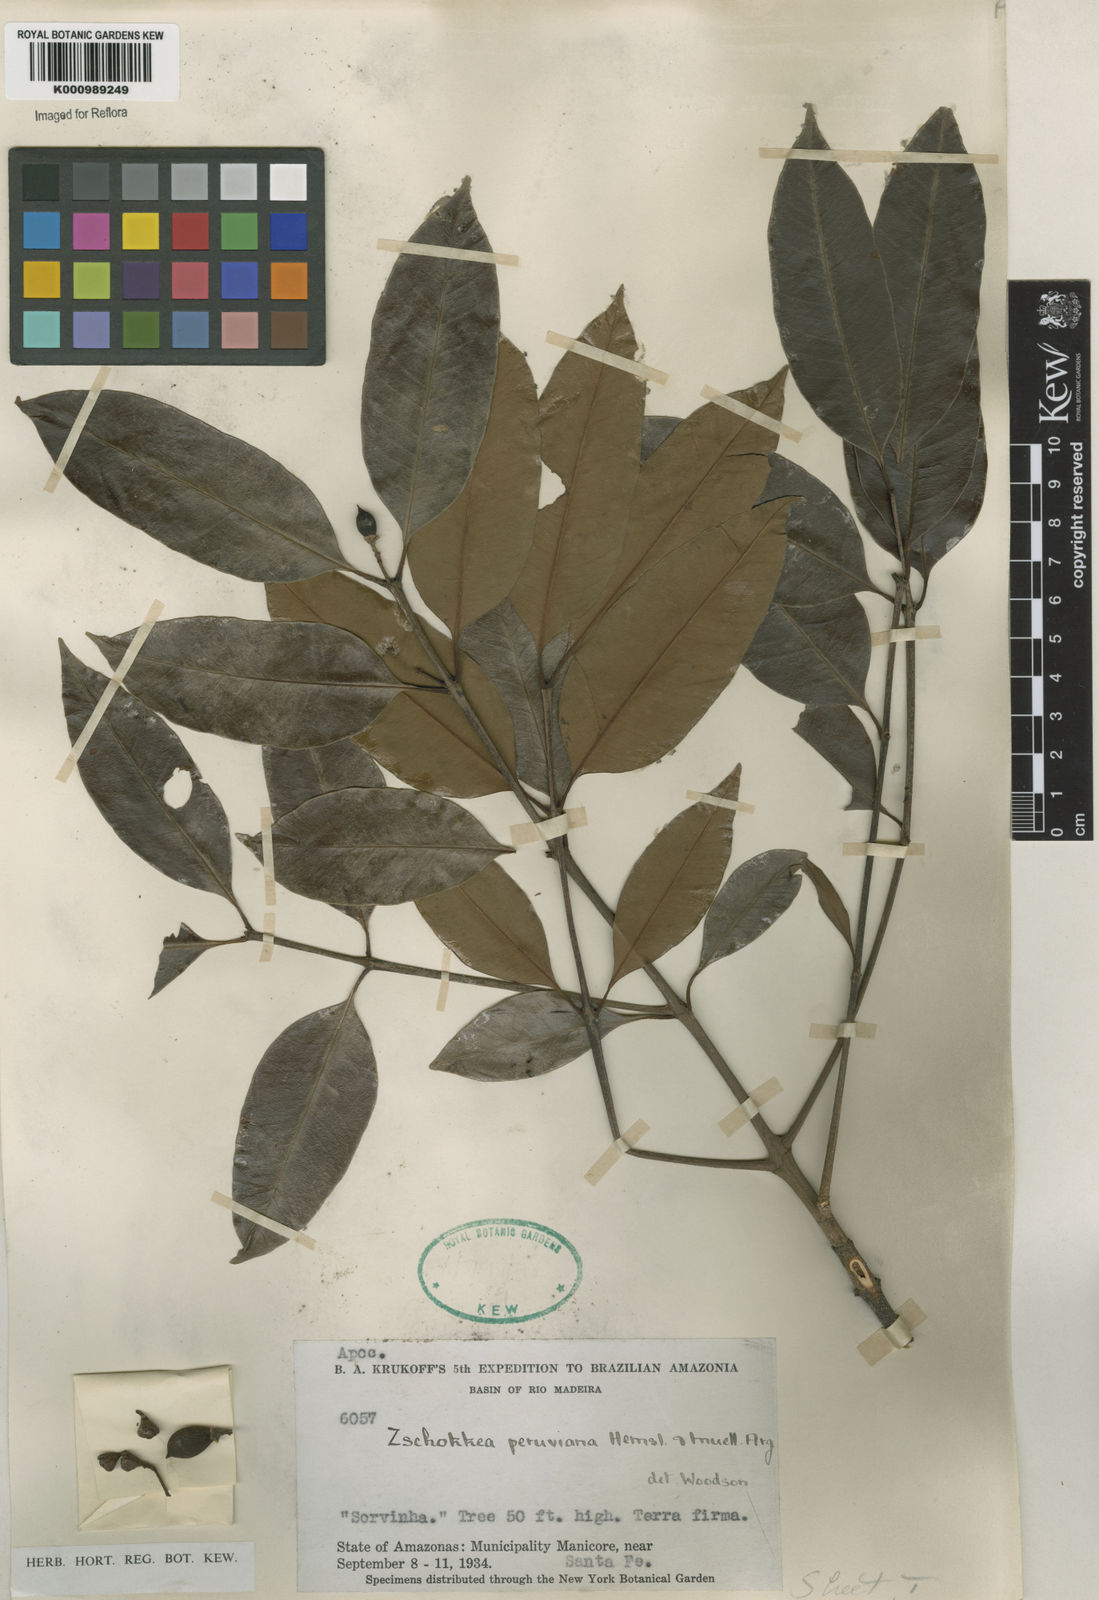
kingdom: Plantae
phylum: Tracheophyta
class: Magnoliopsida
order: Gentianales
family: Apocynaceae
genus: Lacmellea
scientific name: Lacmellea
